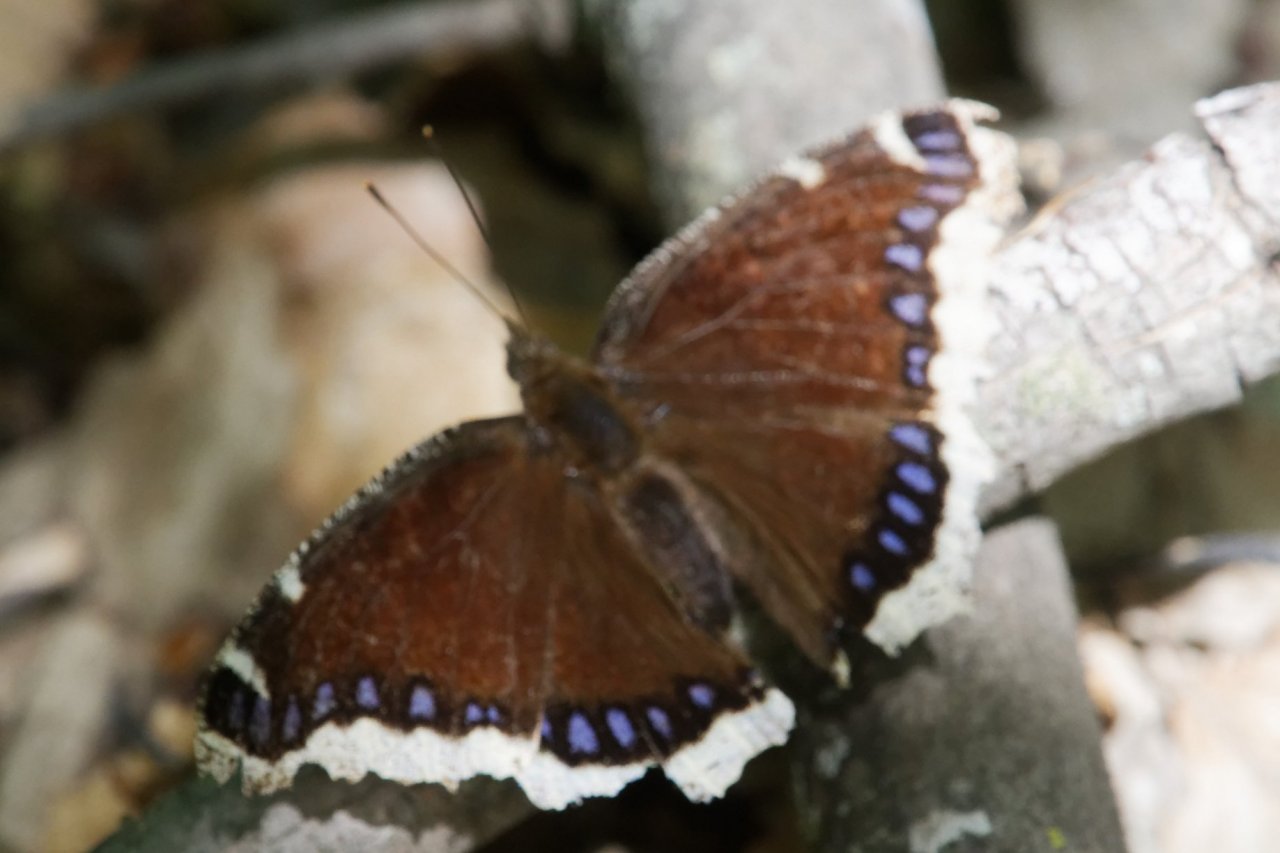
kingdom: Animalia
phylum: Arthropoda
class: Insecta
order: Lepidoptera
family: Nymphalidae
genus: Nymphalis
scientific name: Nymphalis antiopa
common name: Mourning Cloak
